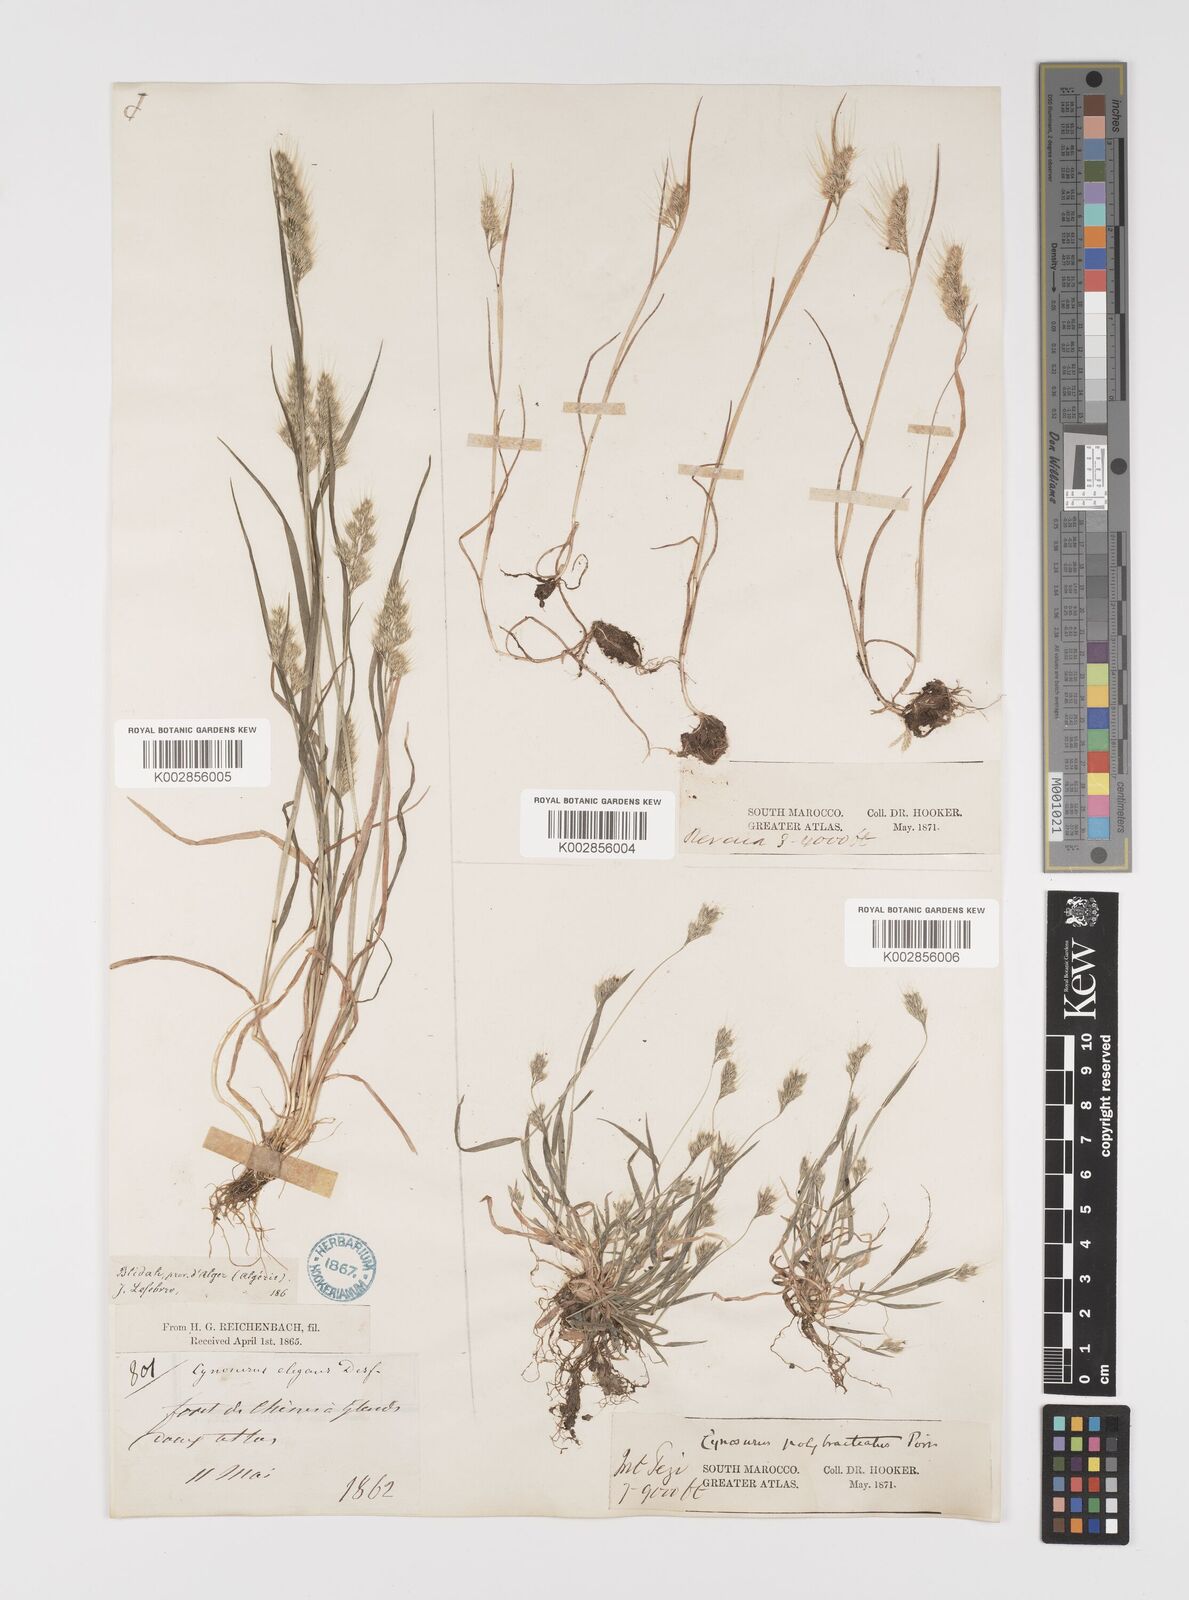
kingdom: Plantae
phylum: Tracheophyta
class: Liliopsida
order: Poales
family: Poaceae
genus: Cynosurus
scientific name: Cynosurus elegans
